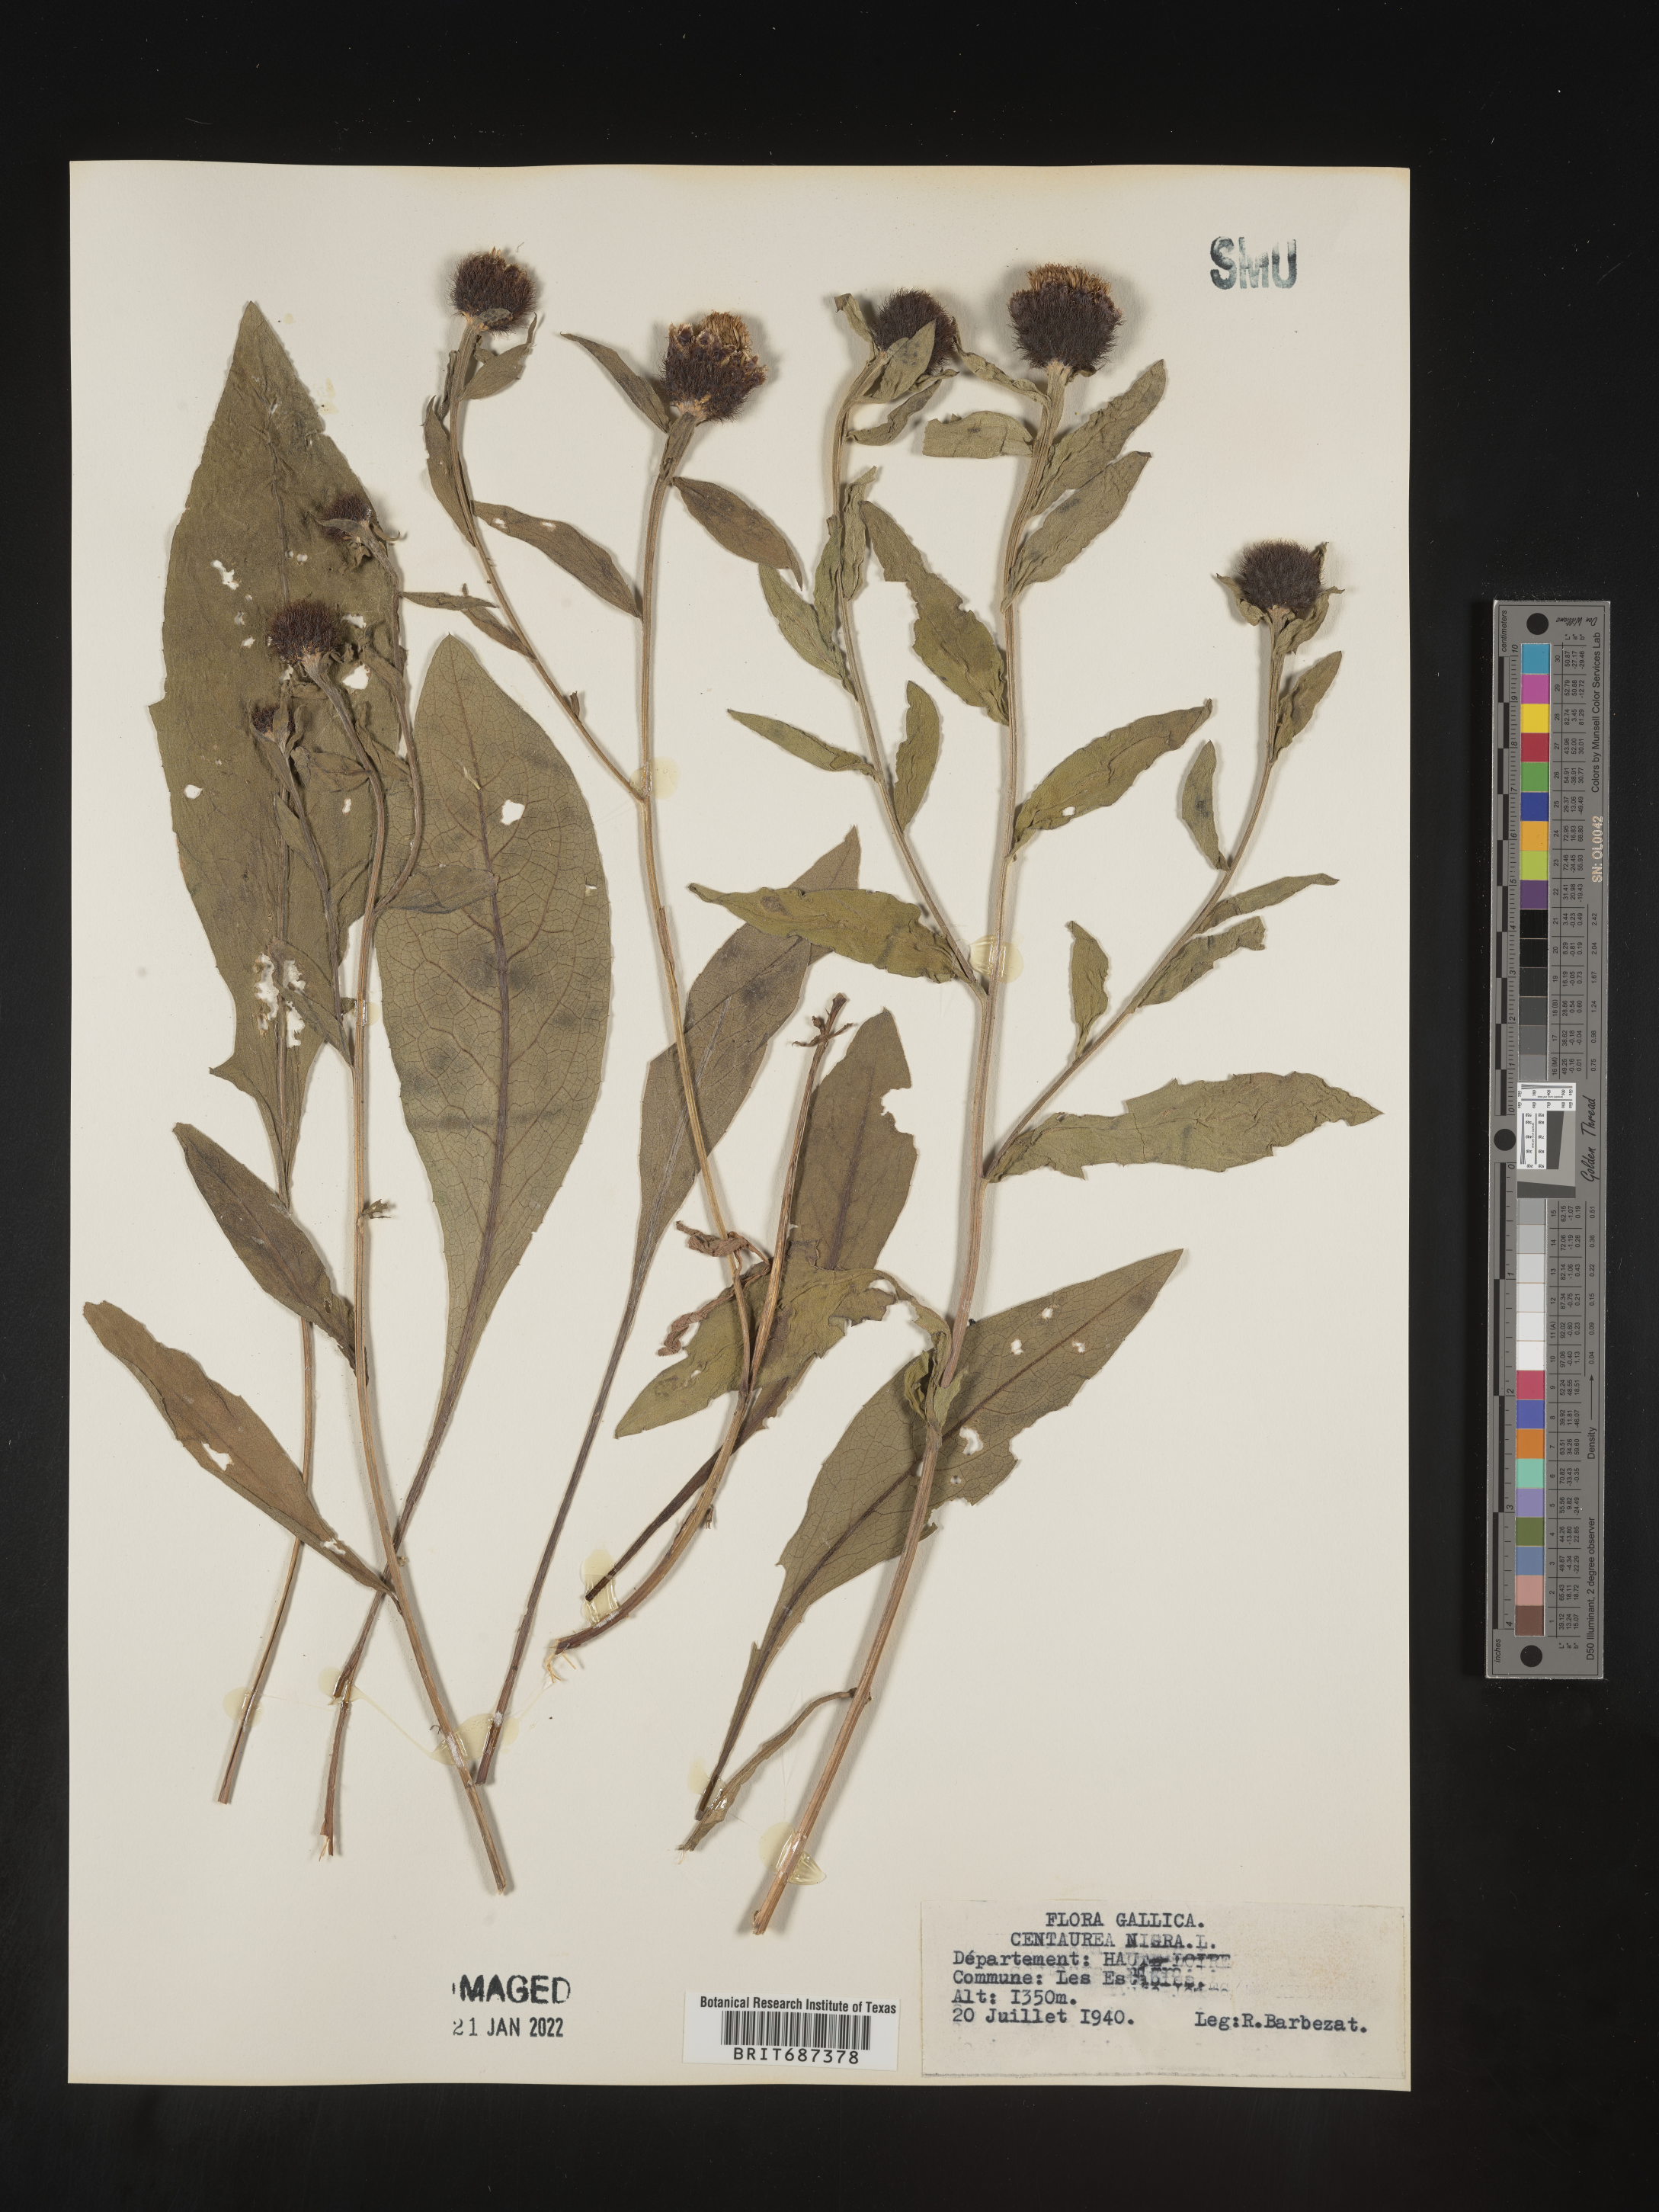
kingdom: Plantae
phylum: Tracheophyta
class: Magnoliopsida
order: Asterales
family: Asteraceae
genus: Centaurea
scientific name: Centaurea
